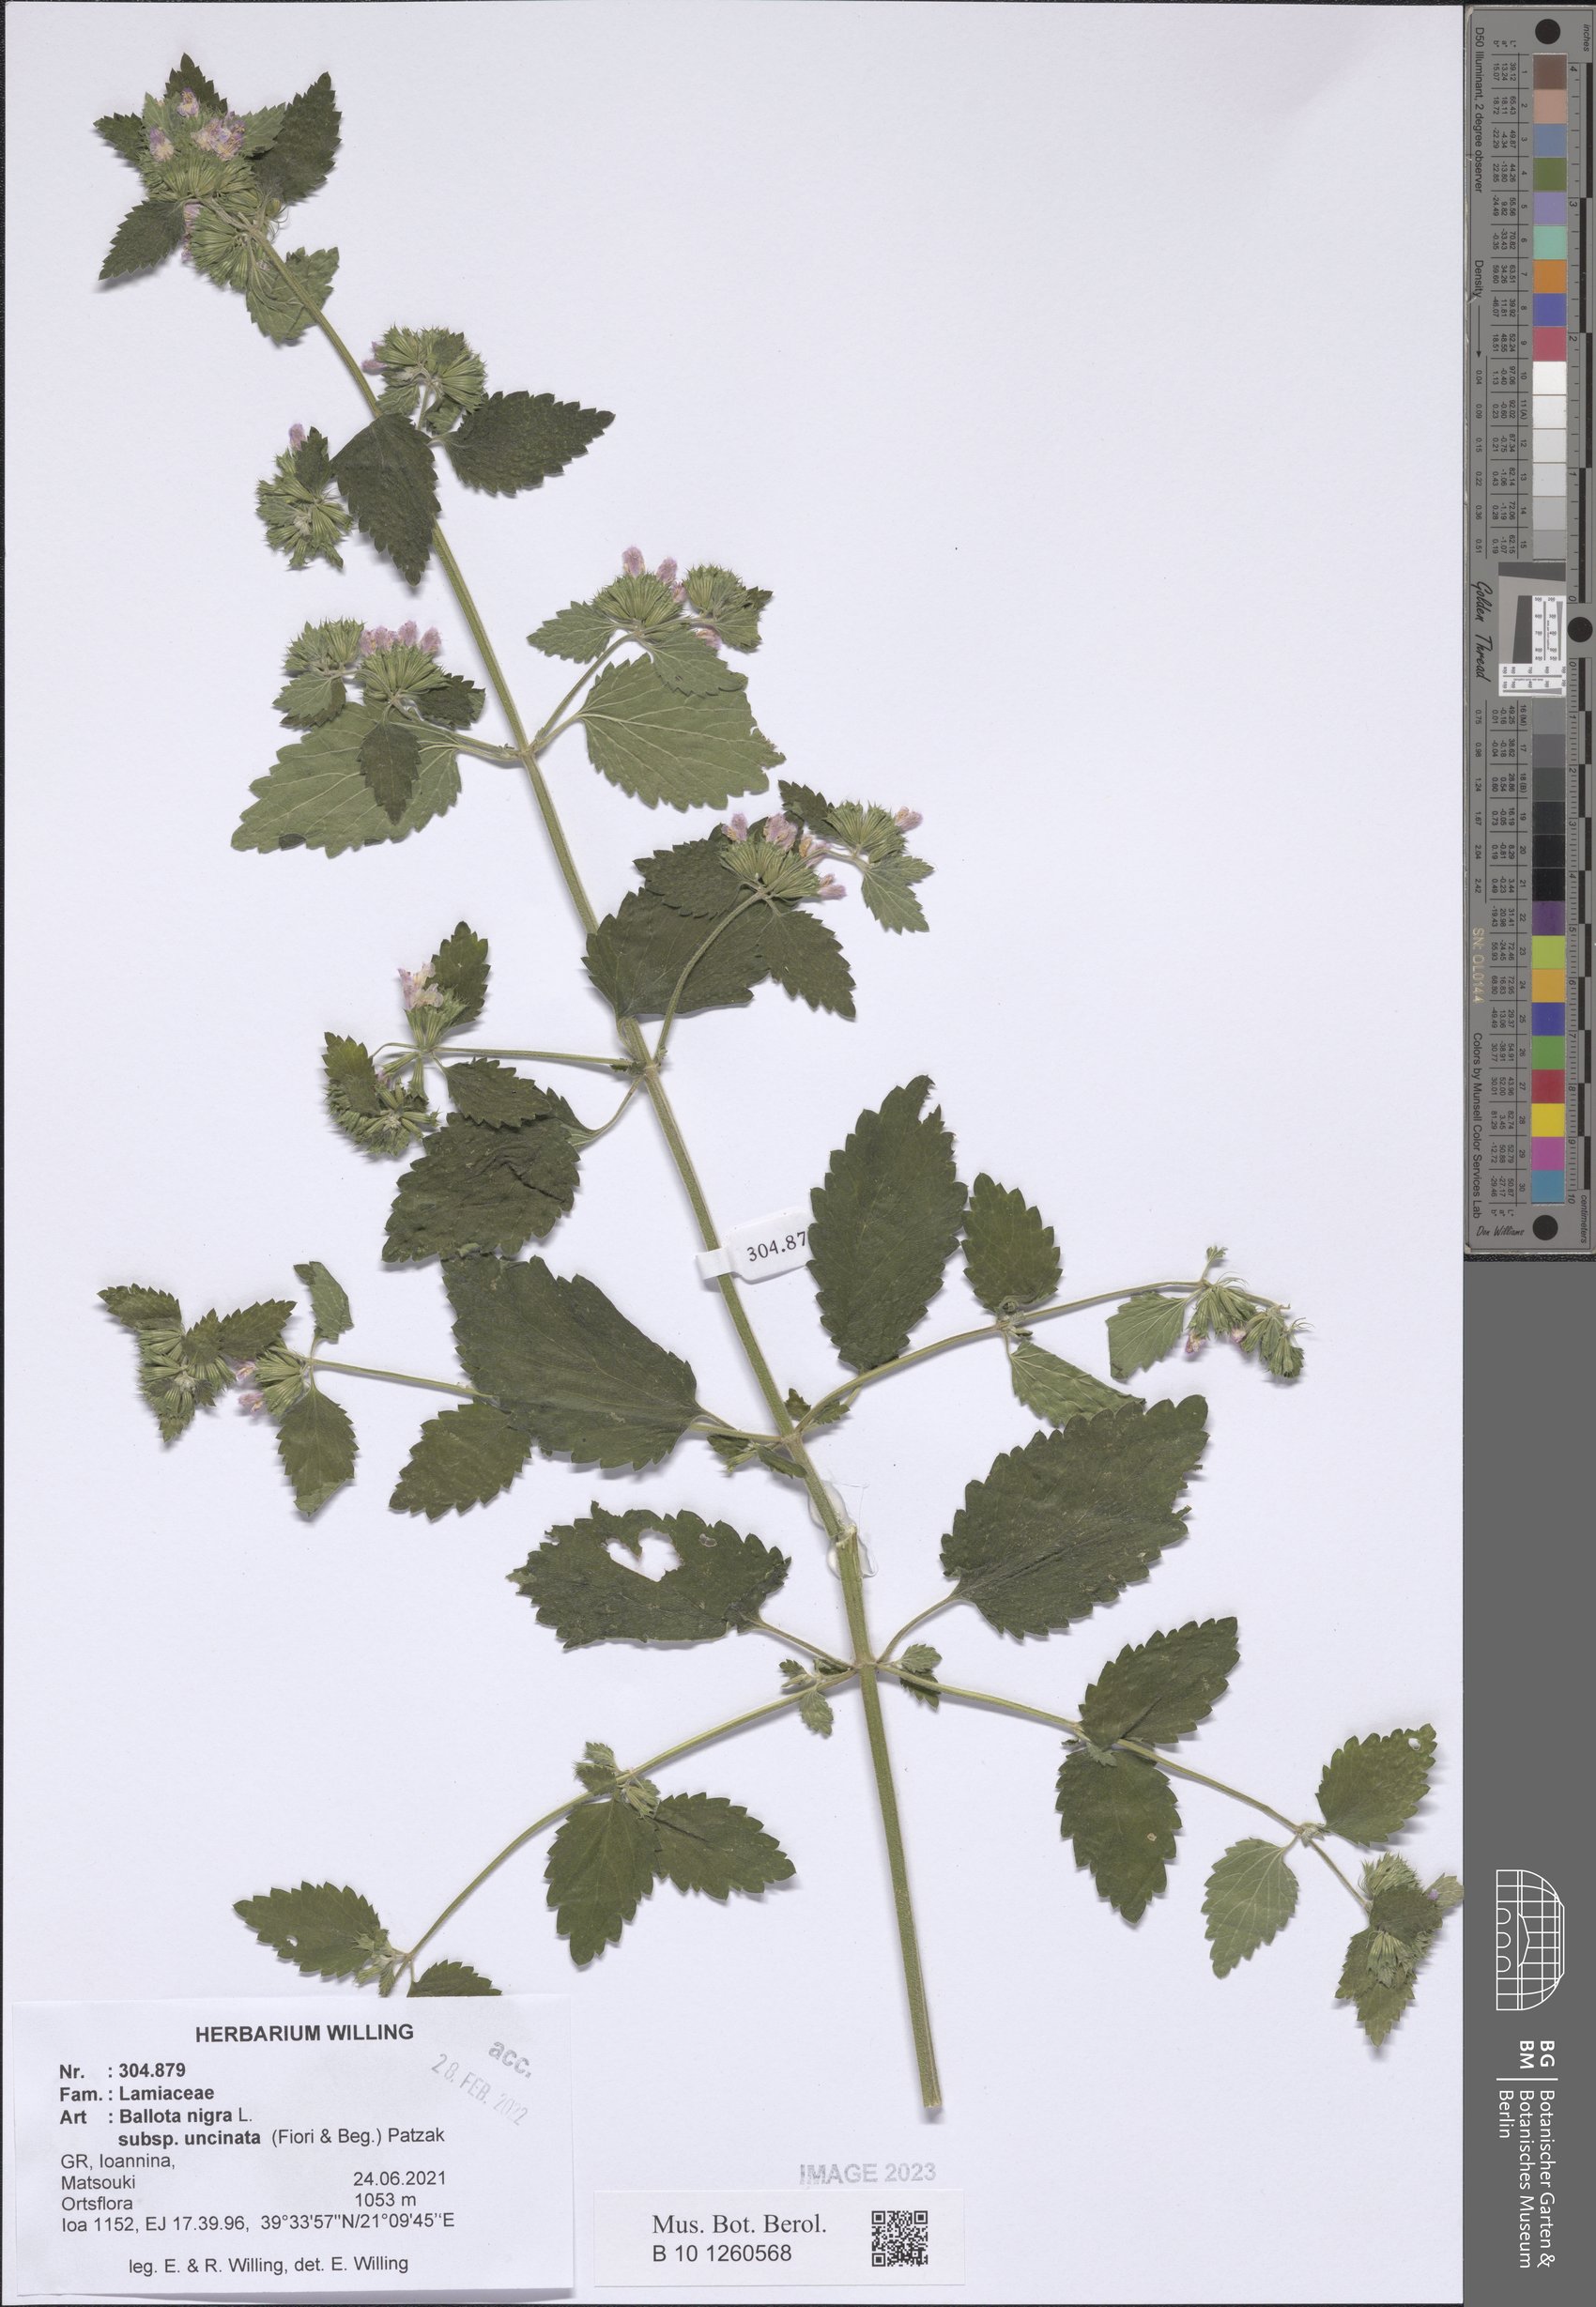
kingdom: Plantae
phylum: Tracheophyta
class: Magnoliopsida
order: Lamiales
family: Lamiaceae
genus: Ballota
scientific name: Ballota nigra
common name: Black horehound
